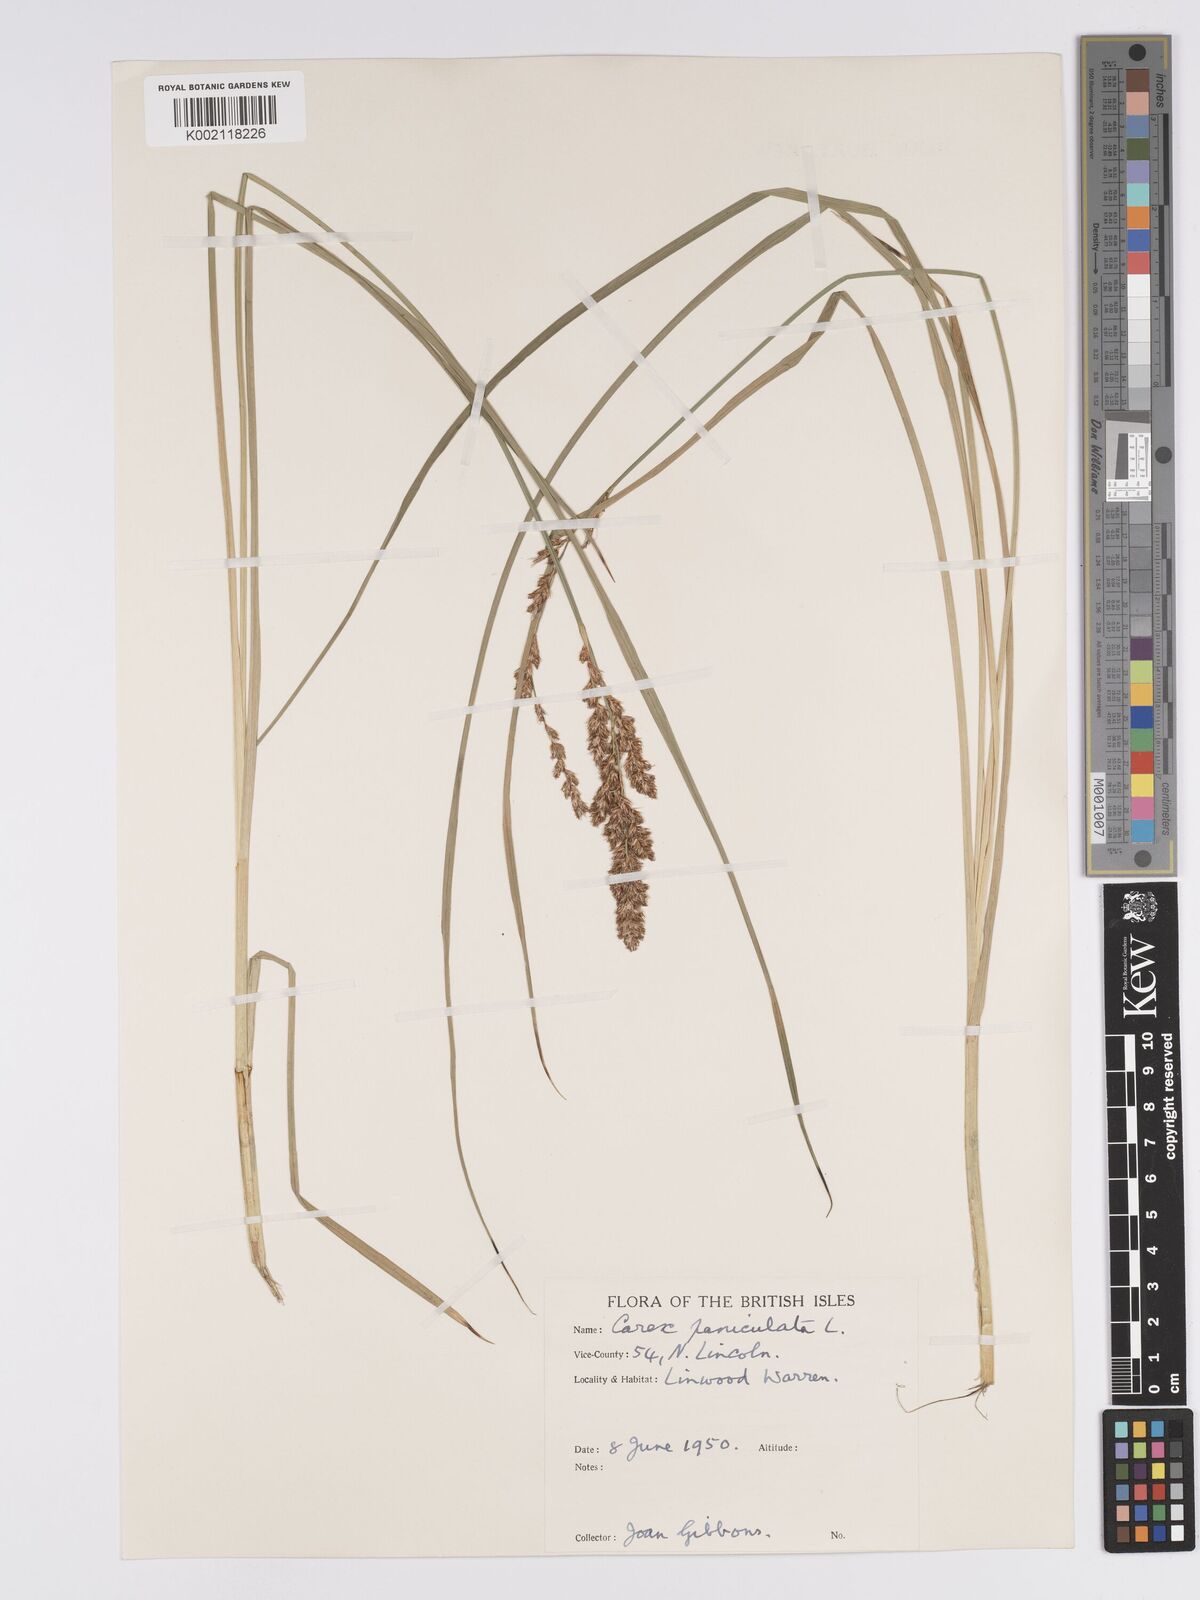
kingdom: Plantae
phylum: Tracheophyta
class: Liliopsida
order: Poales
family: Cyperaceae
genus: Carex
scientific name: Carex paniculata
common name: Greater tussock-sedge
